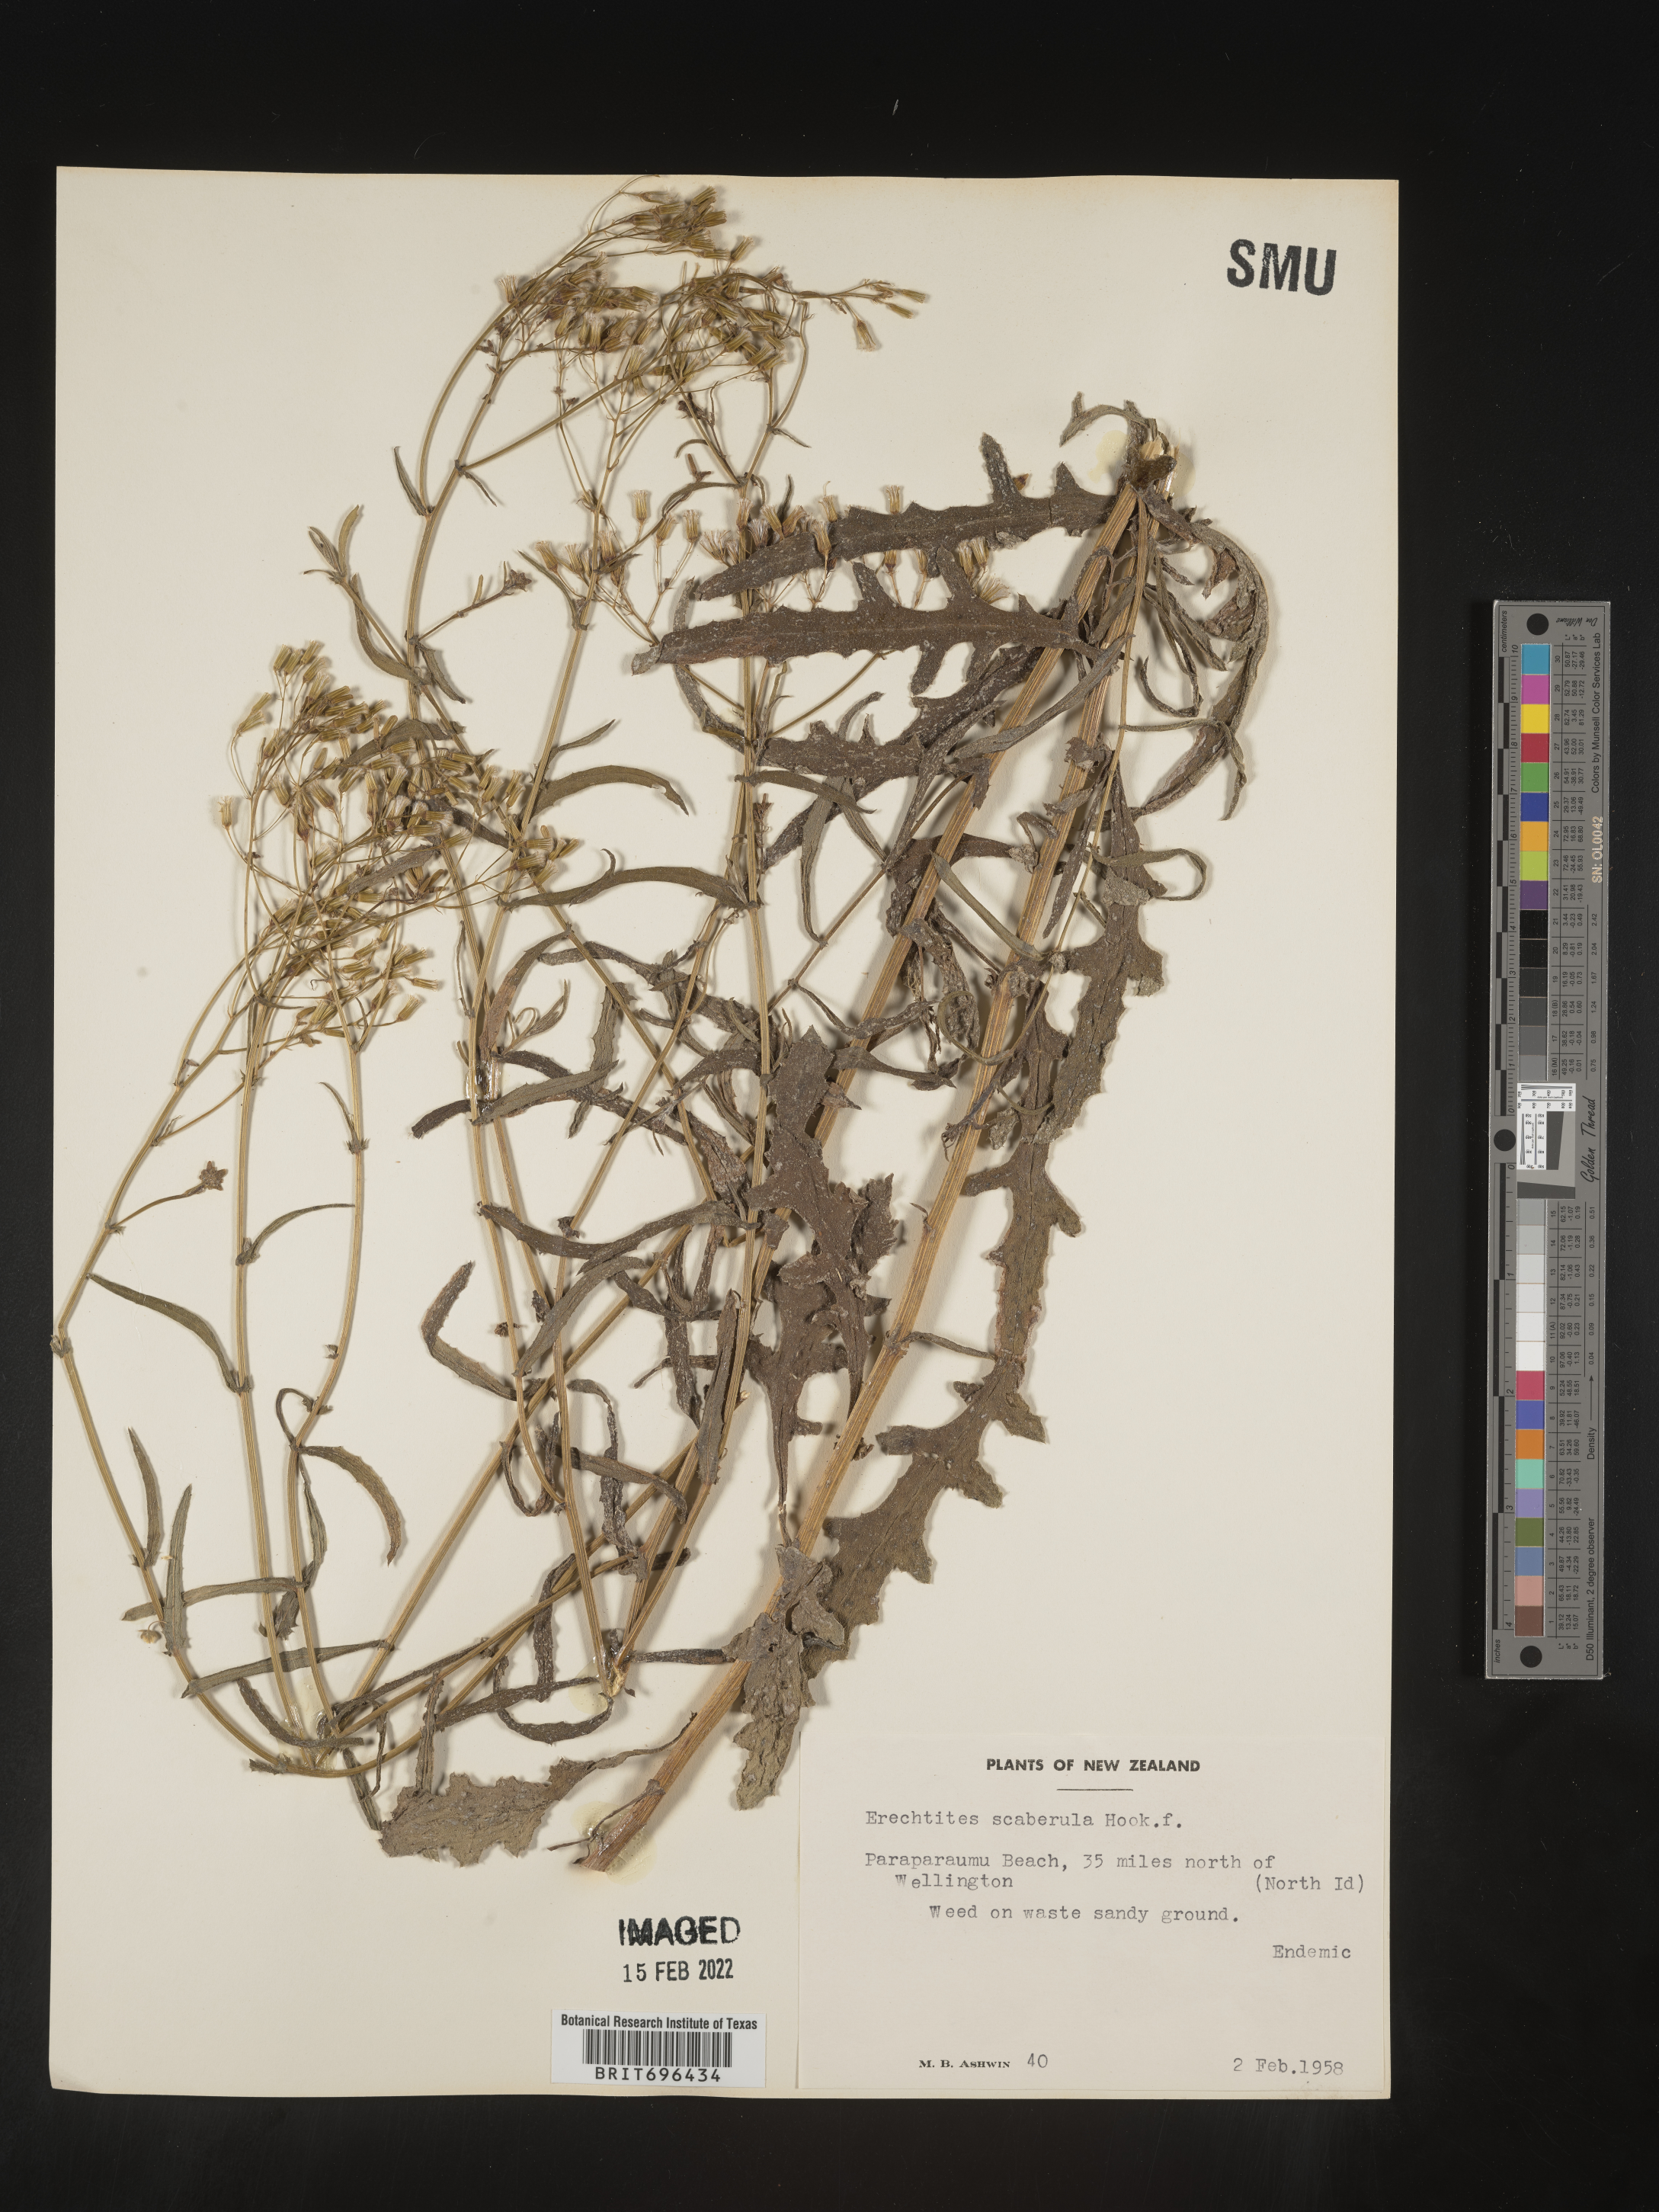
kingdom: Plantae
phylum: Tracheophyta
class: Magnoliopsida
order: Asterales
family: Asteraceae
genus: Erechtites
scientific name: Erechtites
